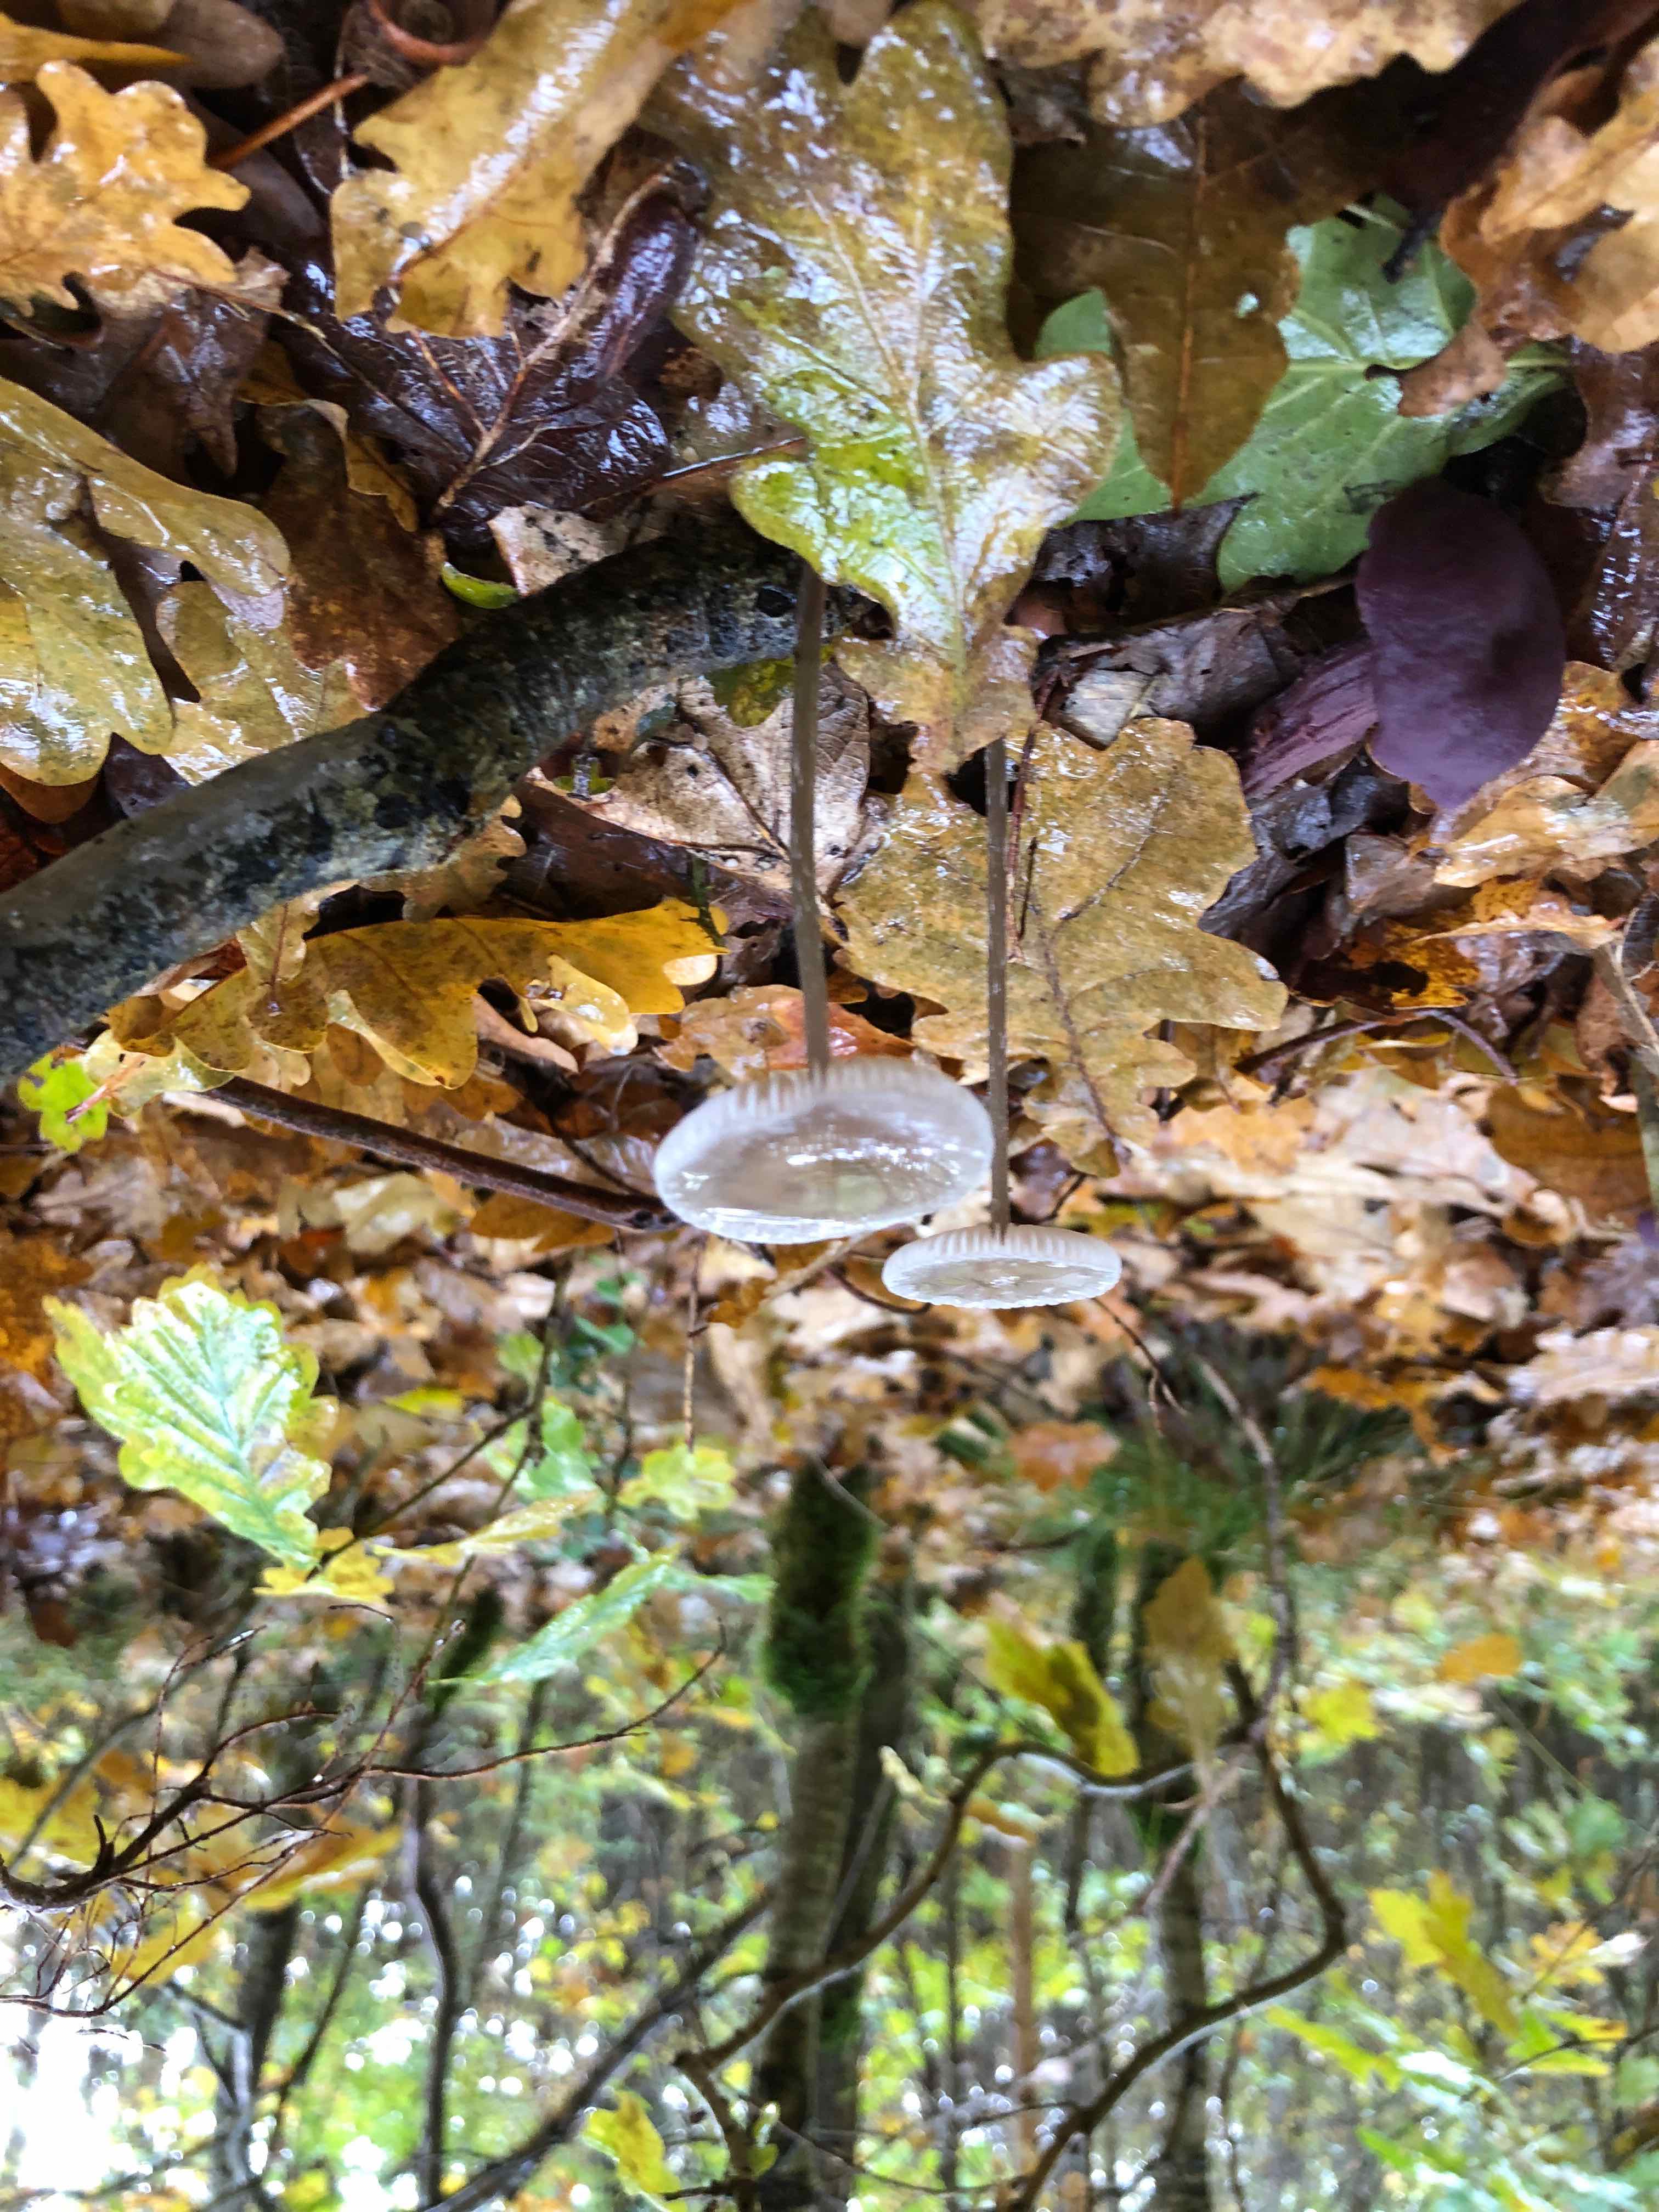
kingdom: Fungi
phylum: Basidiomycota
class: Agaricomycetes
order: Agaricales
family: Mycenaceae
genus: Mycena
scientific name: Mycena
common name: huesvamp
